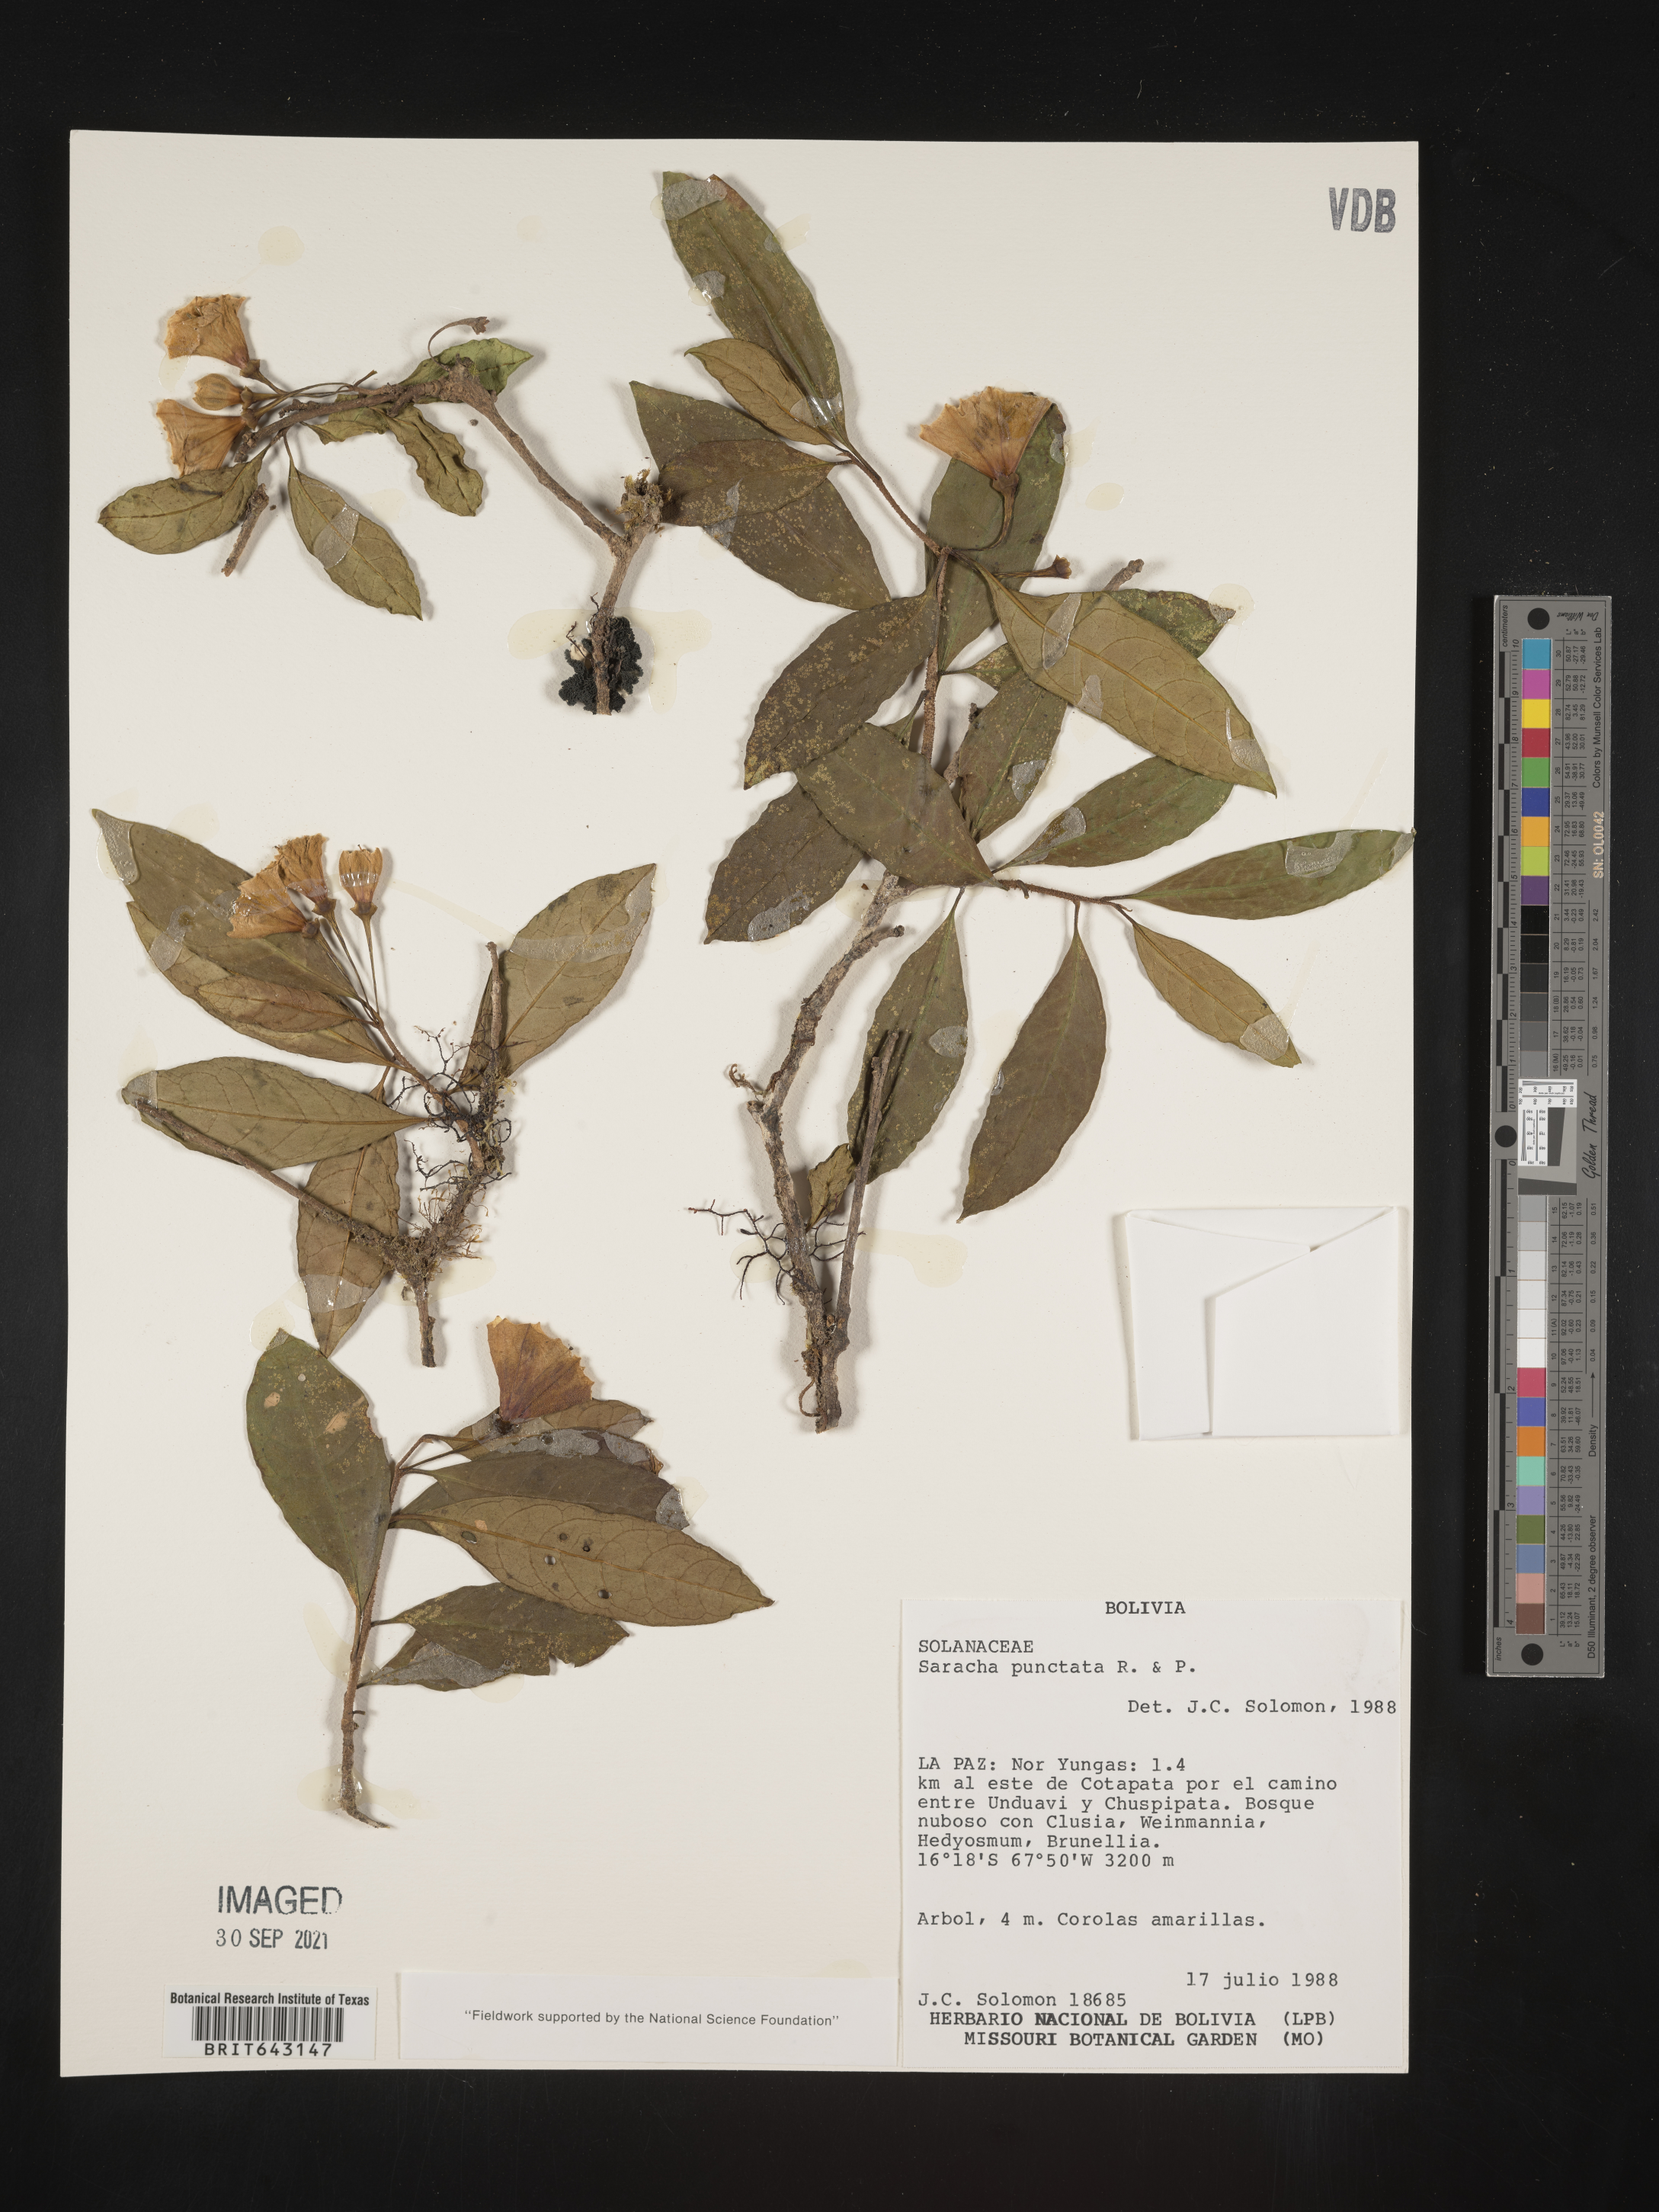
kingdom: Plantae
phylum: Tracheophyta
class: Magnoliopsida
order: Solanales
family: Solanaceae
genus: Saracha
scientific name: Saracha
